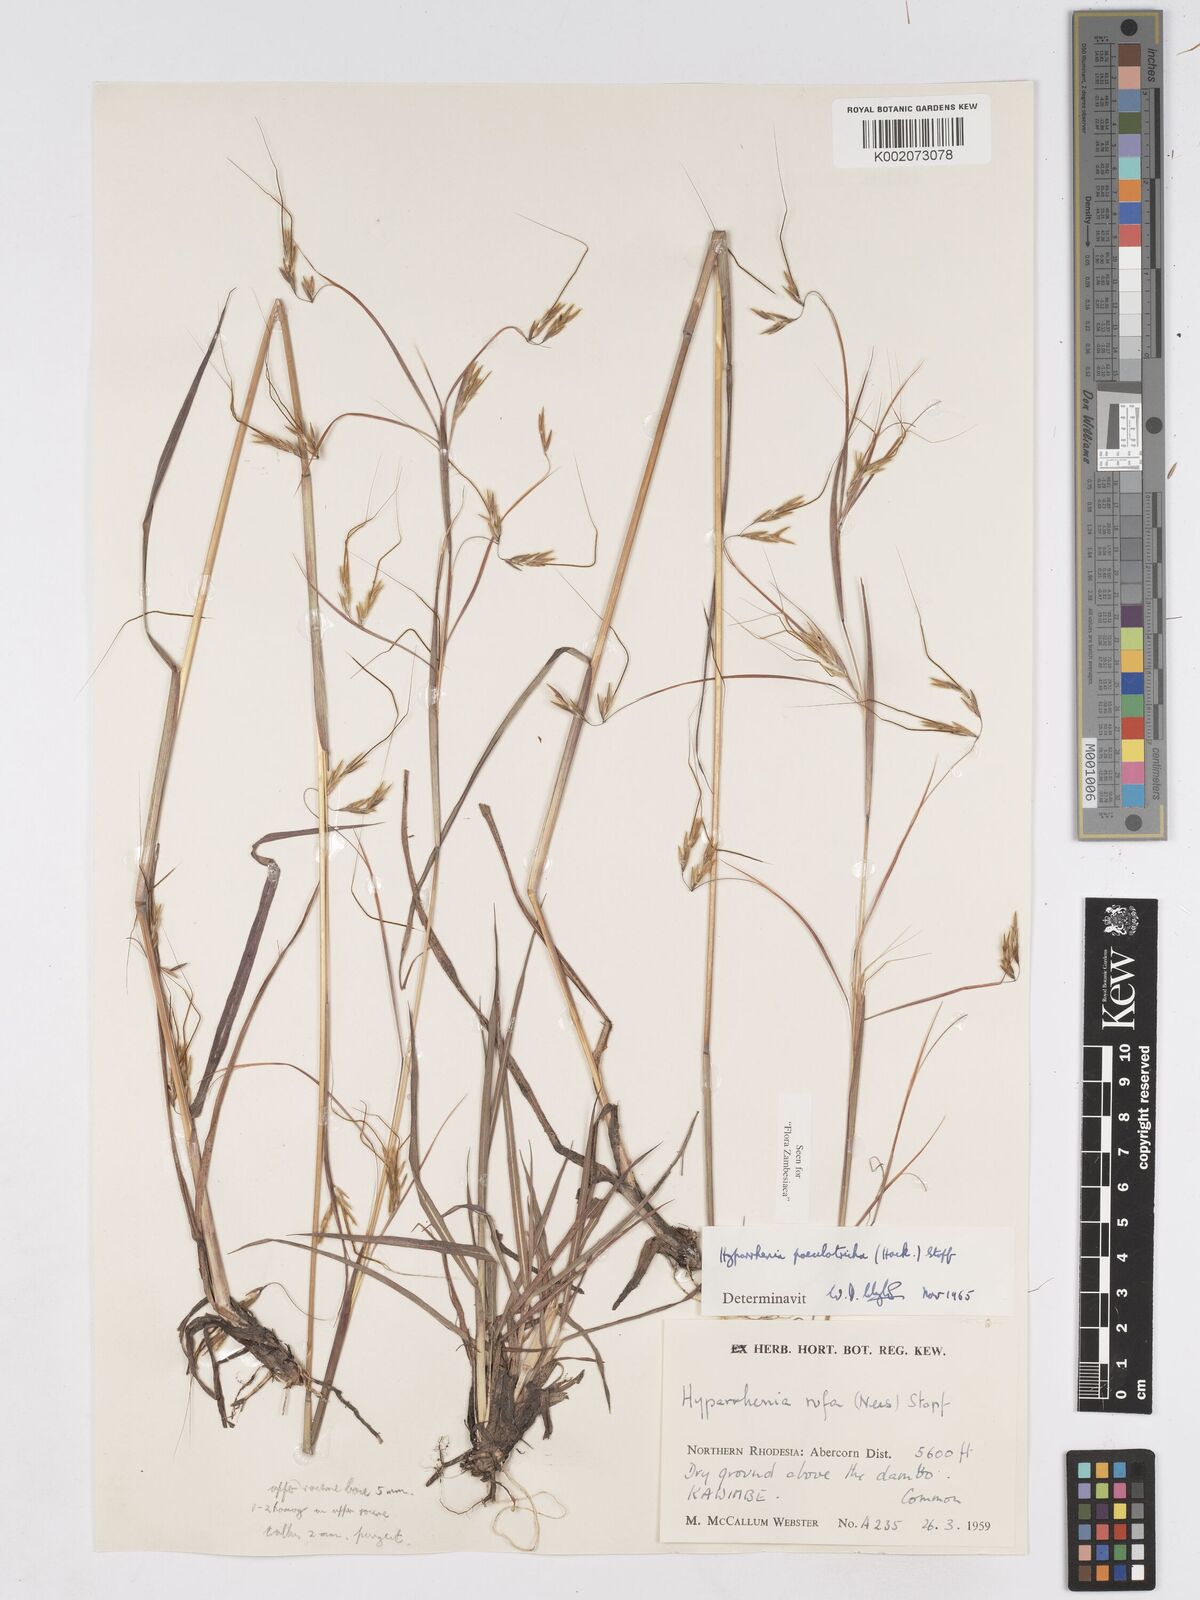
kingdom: Plantae
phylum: Tracheophyta
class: Liliopsida
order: Poales
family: Poaceae
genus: Hyparrhenia
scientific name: Hyparrhenia poecilotricha
